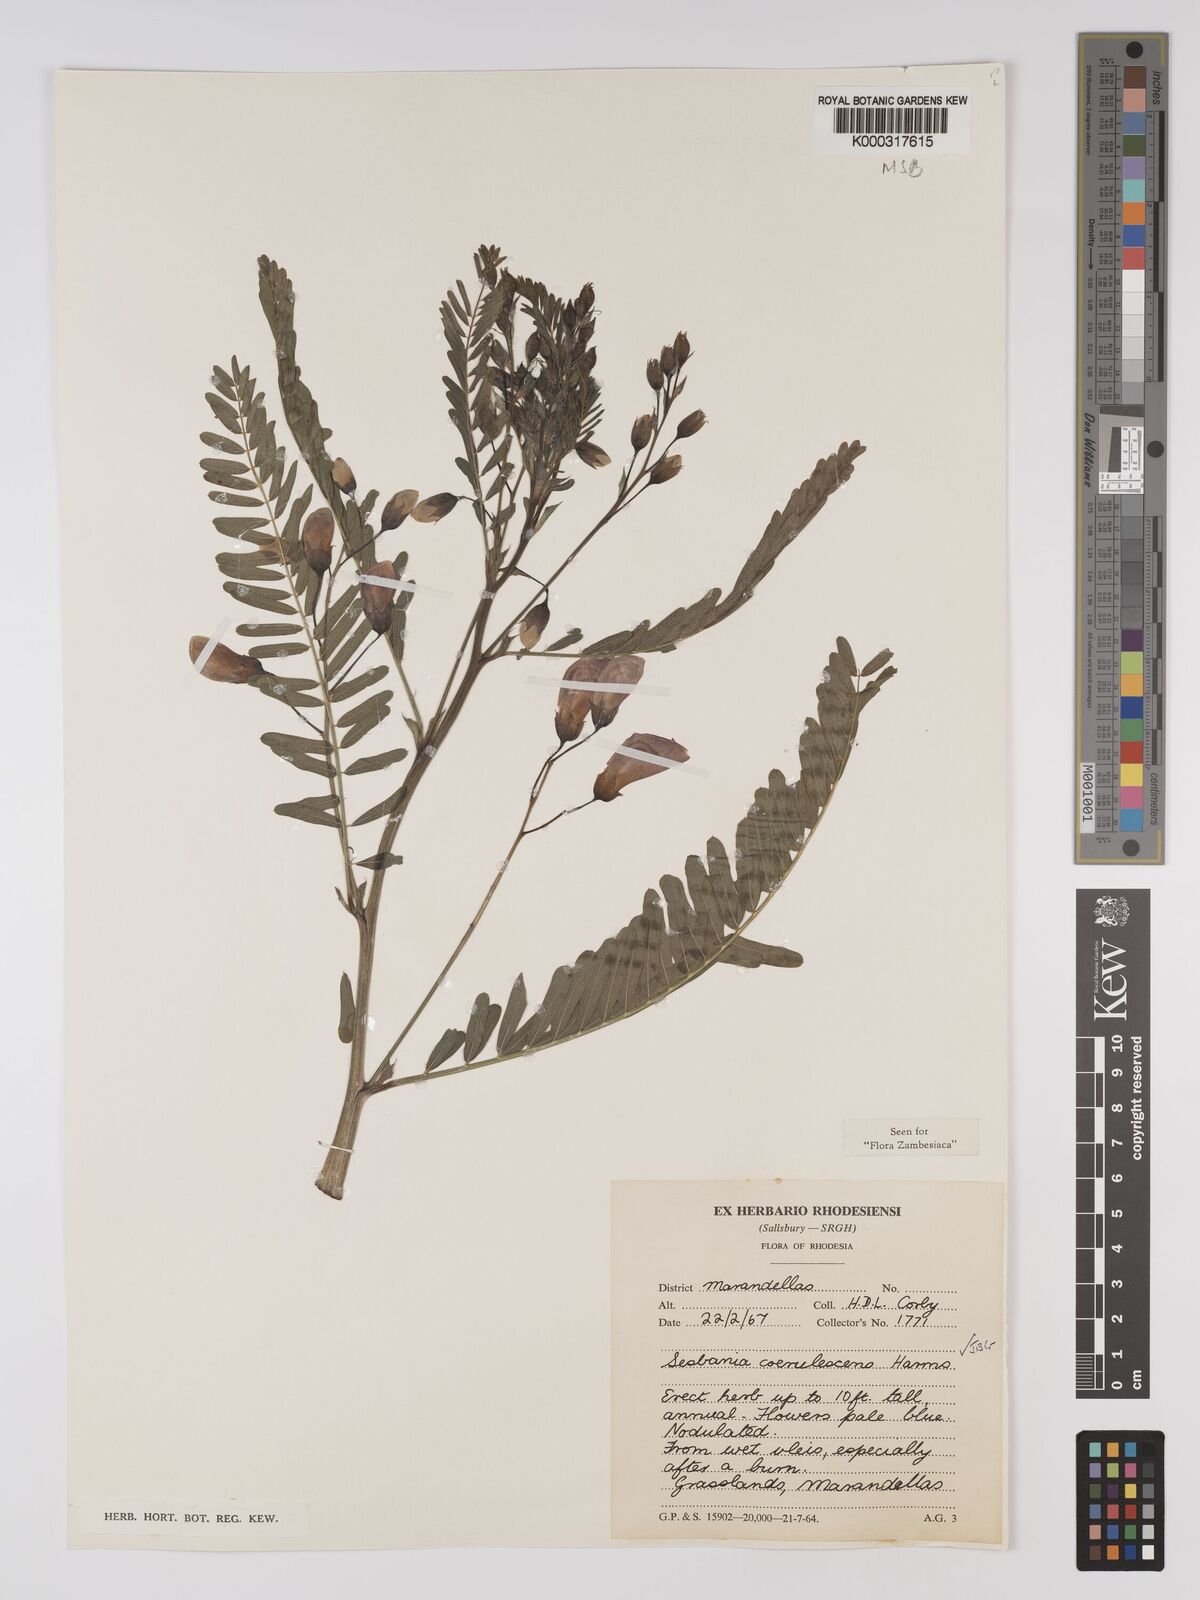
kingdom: Plantae
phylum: Tracheophyta
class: Magnoliopsida
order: Fabales
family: Fabaceae
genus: Sesbania
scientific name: Sesbania coerulescens
